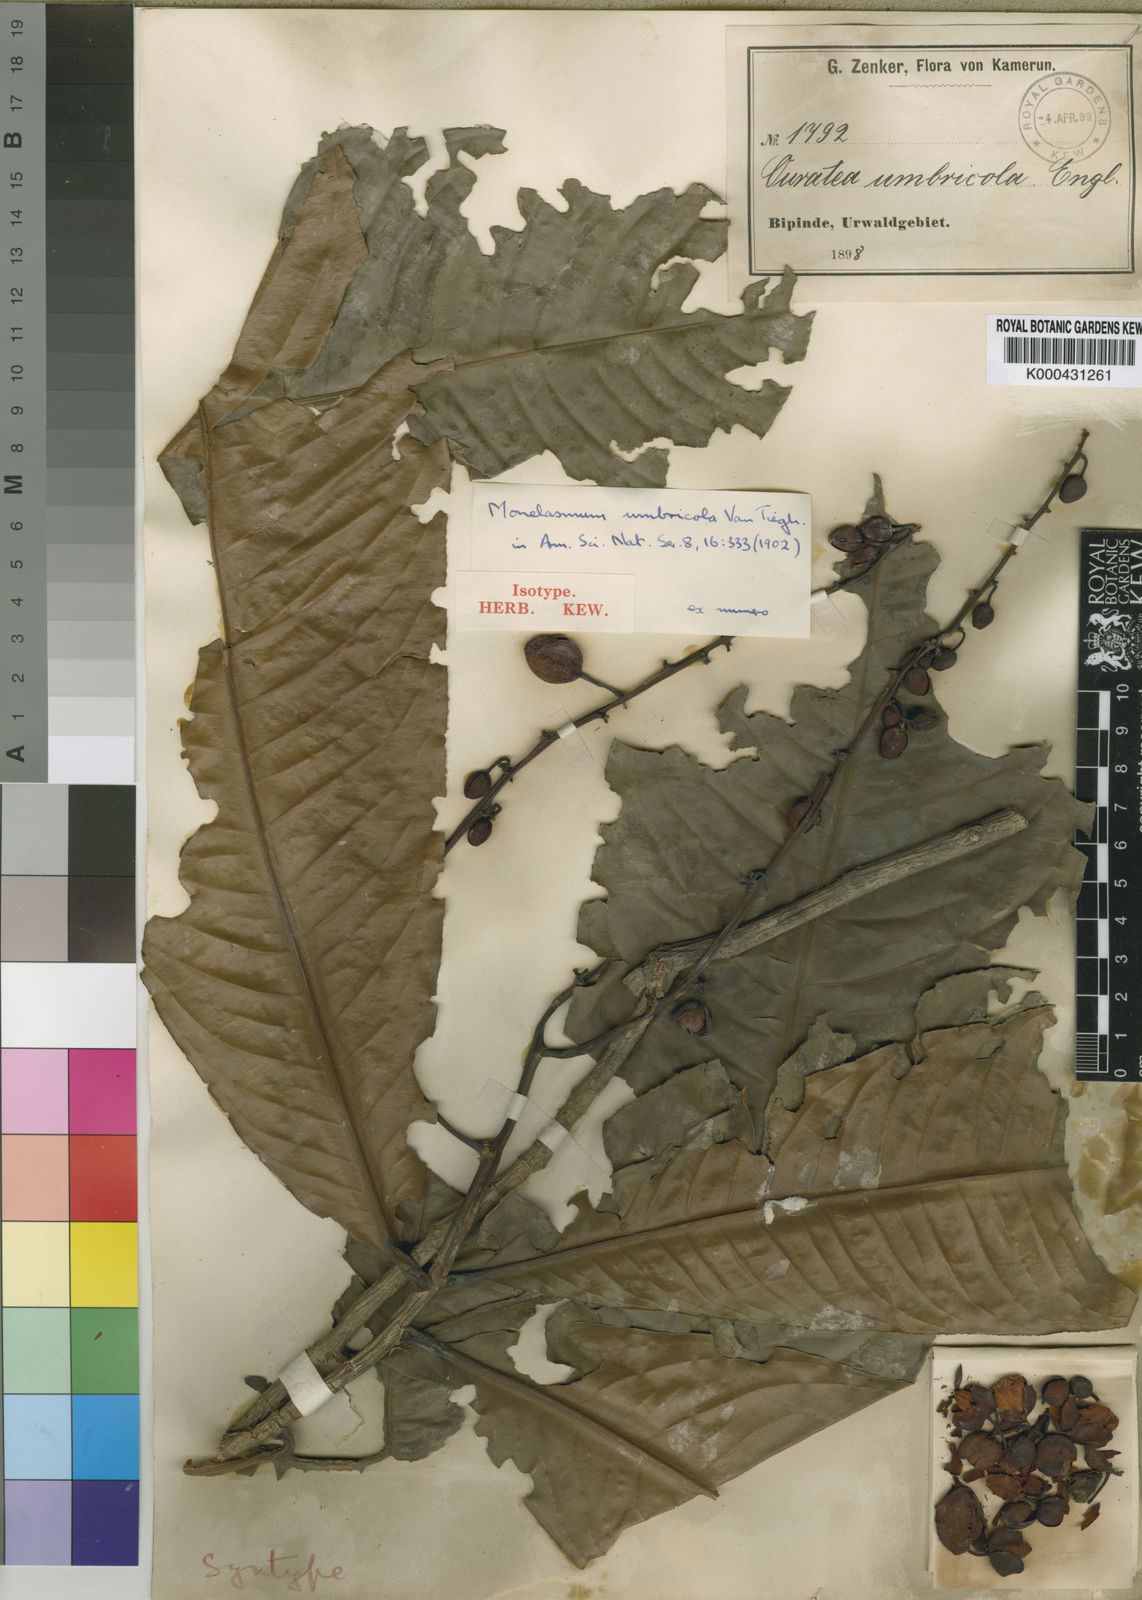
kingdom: Plantae
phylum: Tracheophyta
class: Magnoliopsida
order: Malpighiales
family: Ochnaceae
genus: Campylospermum
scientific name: Campylospermum umbricola
